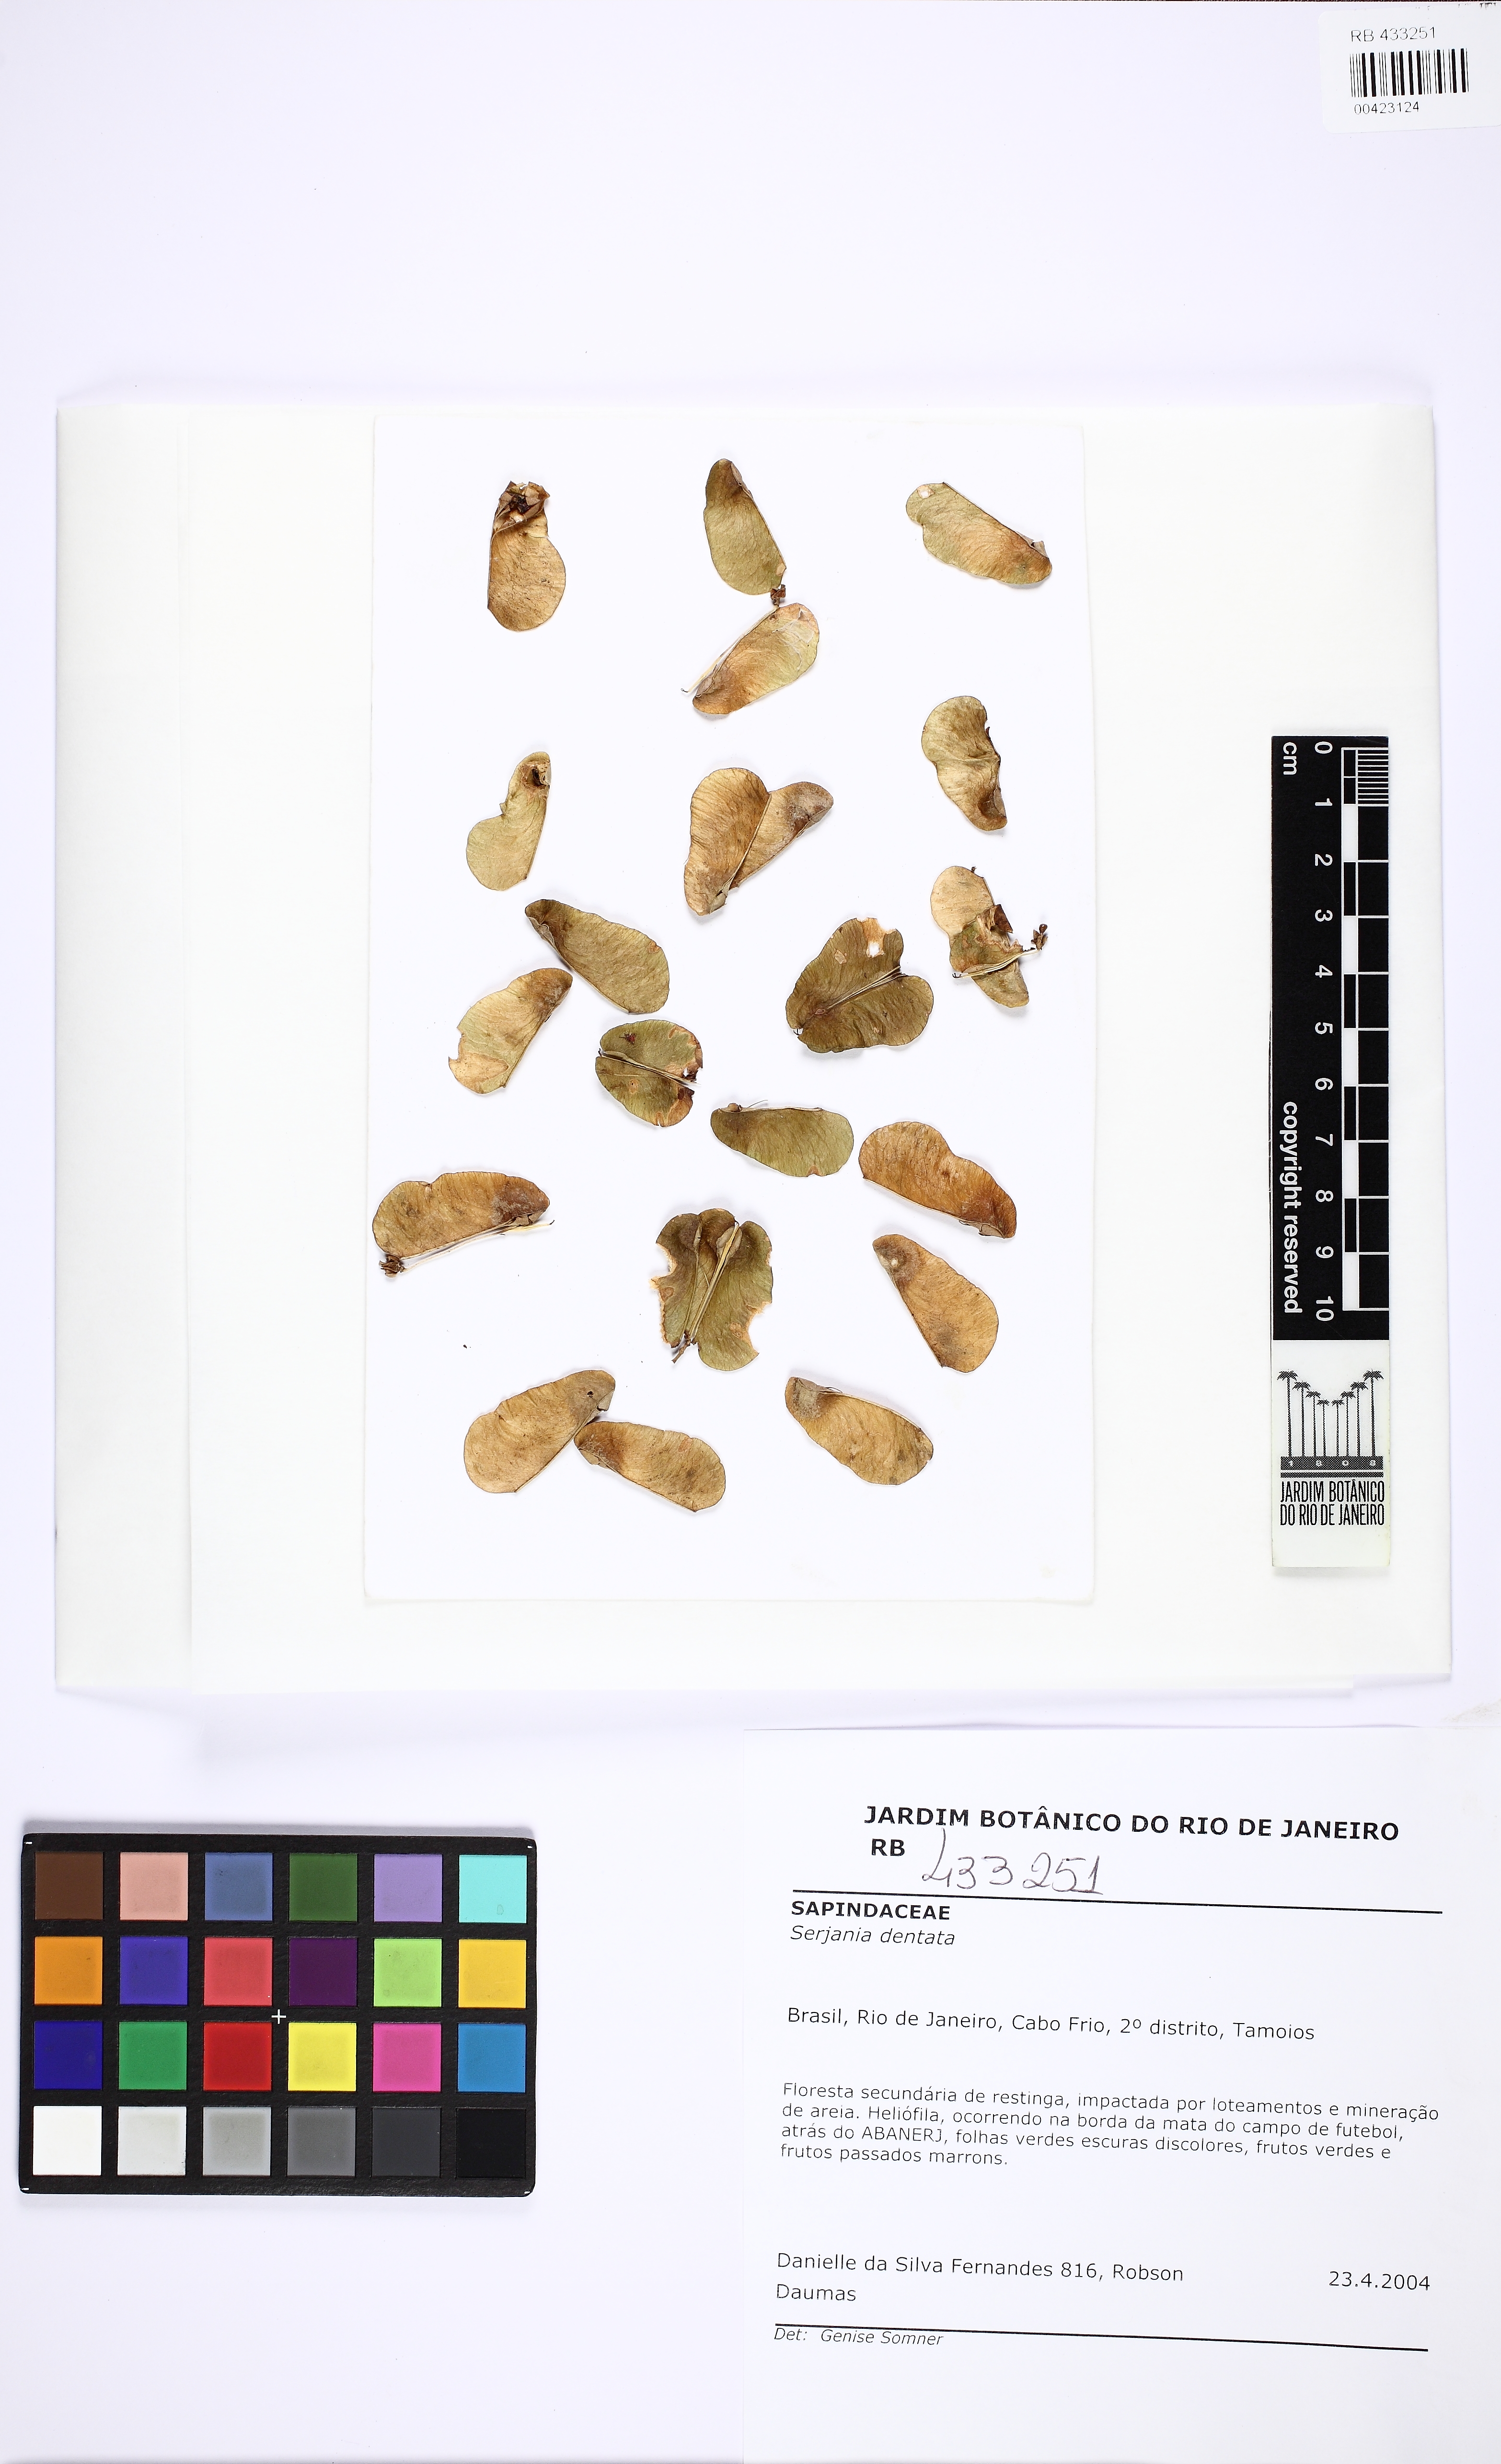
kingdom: Plantae
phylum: Tracheophyta
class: Magnoliopsida
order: Sapindales
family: Sapindaceae
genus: Serjania
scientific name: Serjania dentata
